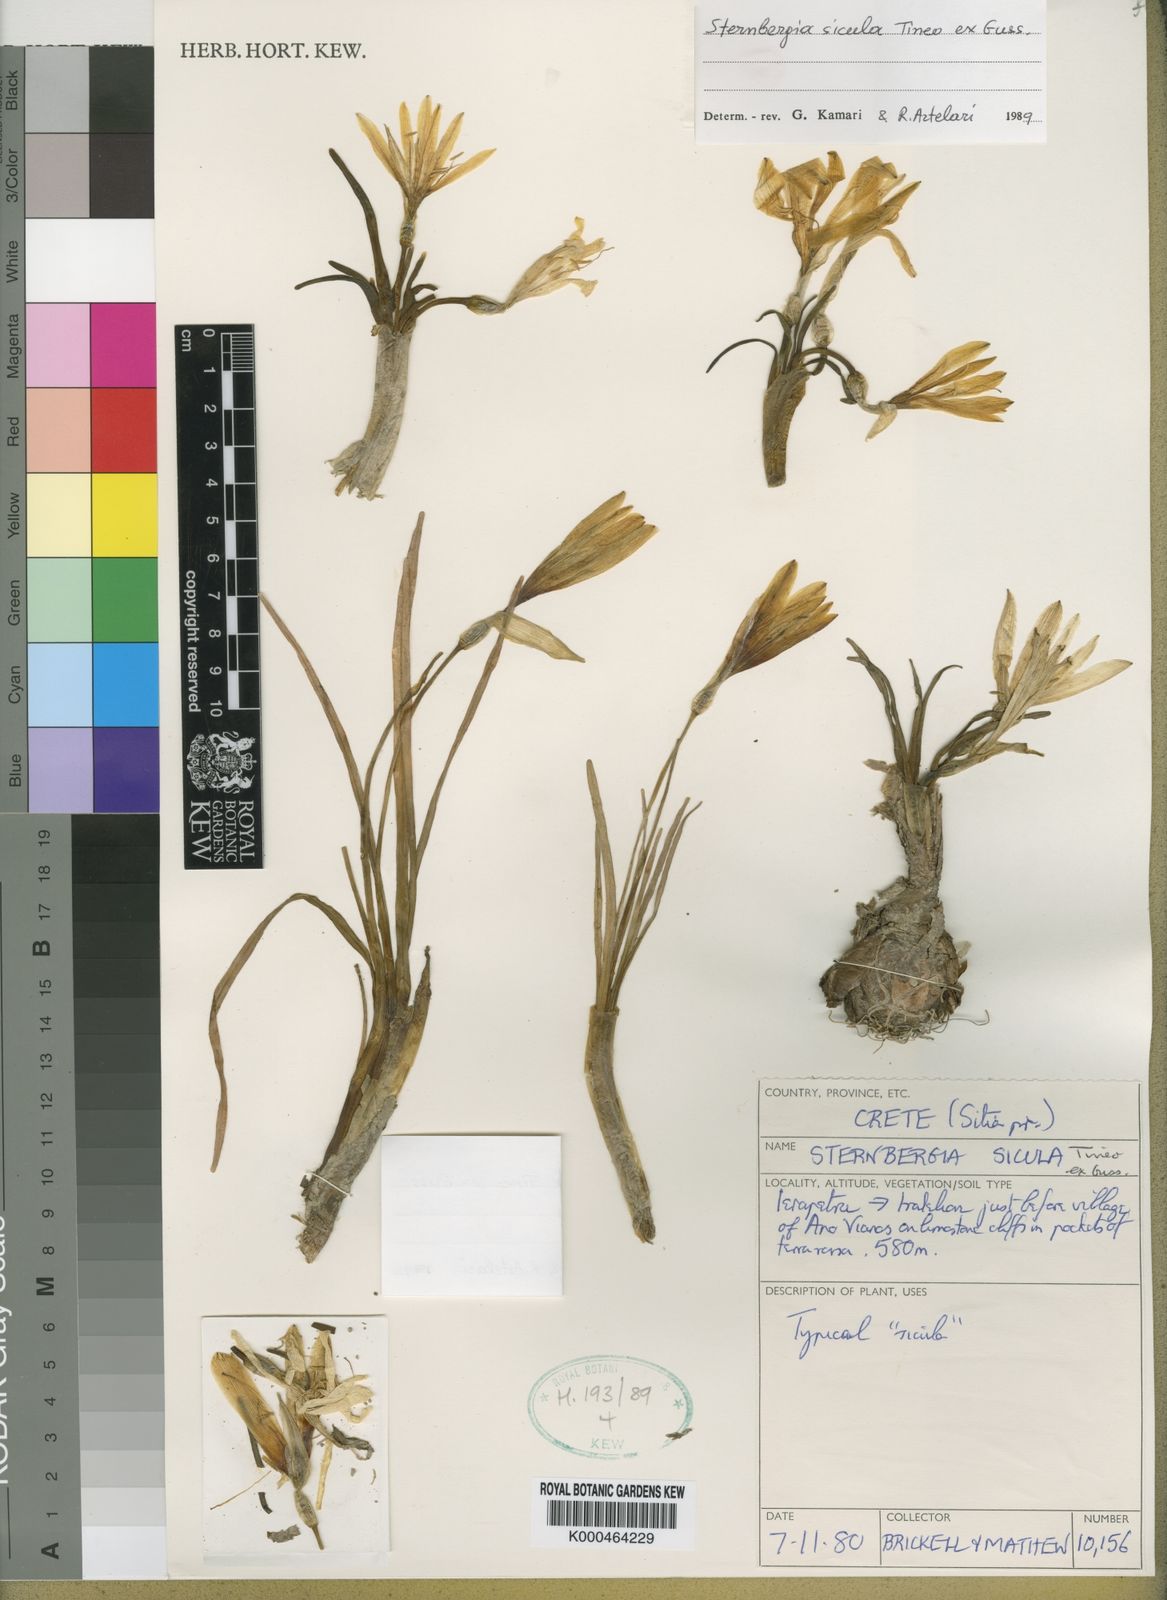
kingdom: Plantae
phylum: Tracheophyta
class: Liliopsida
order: Asparagales
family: Amaryllidaceae
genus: Sternbergia
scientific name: Sternbergia
